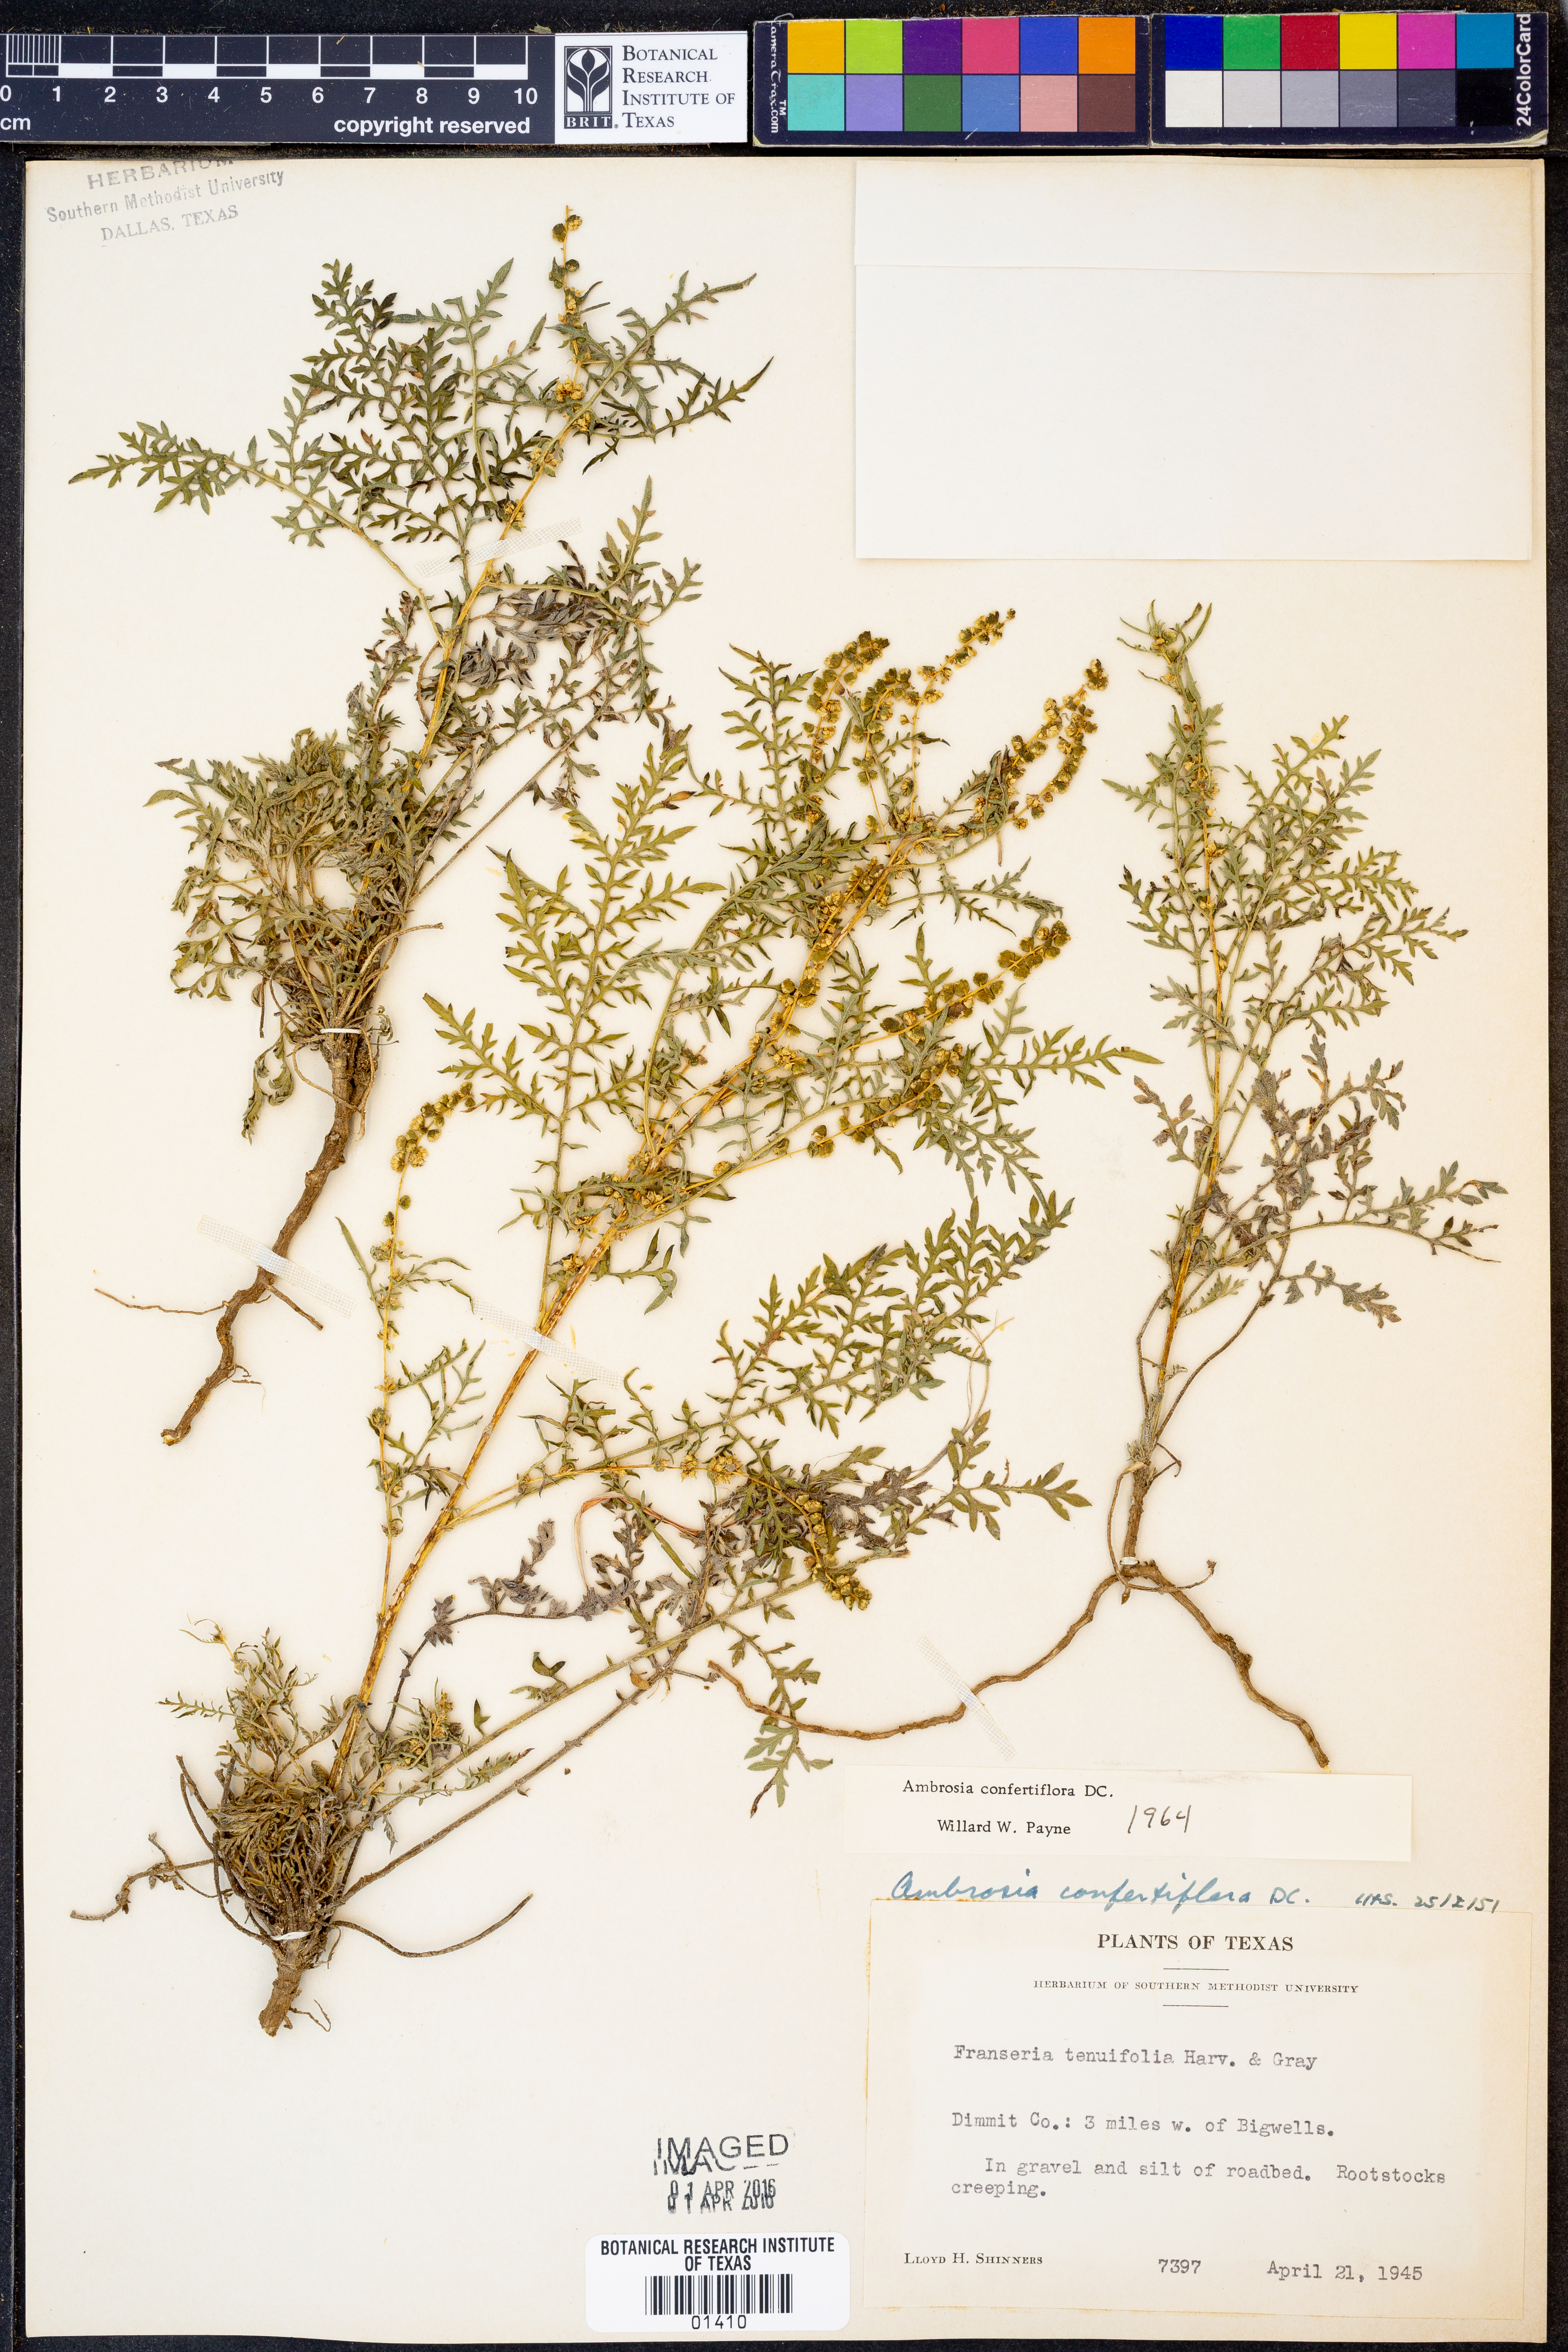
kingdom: Plantae
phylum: Tracheophyta
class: Magnoliopsida
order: Asterales
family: Asteraceae
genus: Ambrosia
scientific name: Ambrosia confertiflora
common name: Bur ragweed
